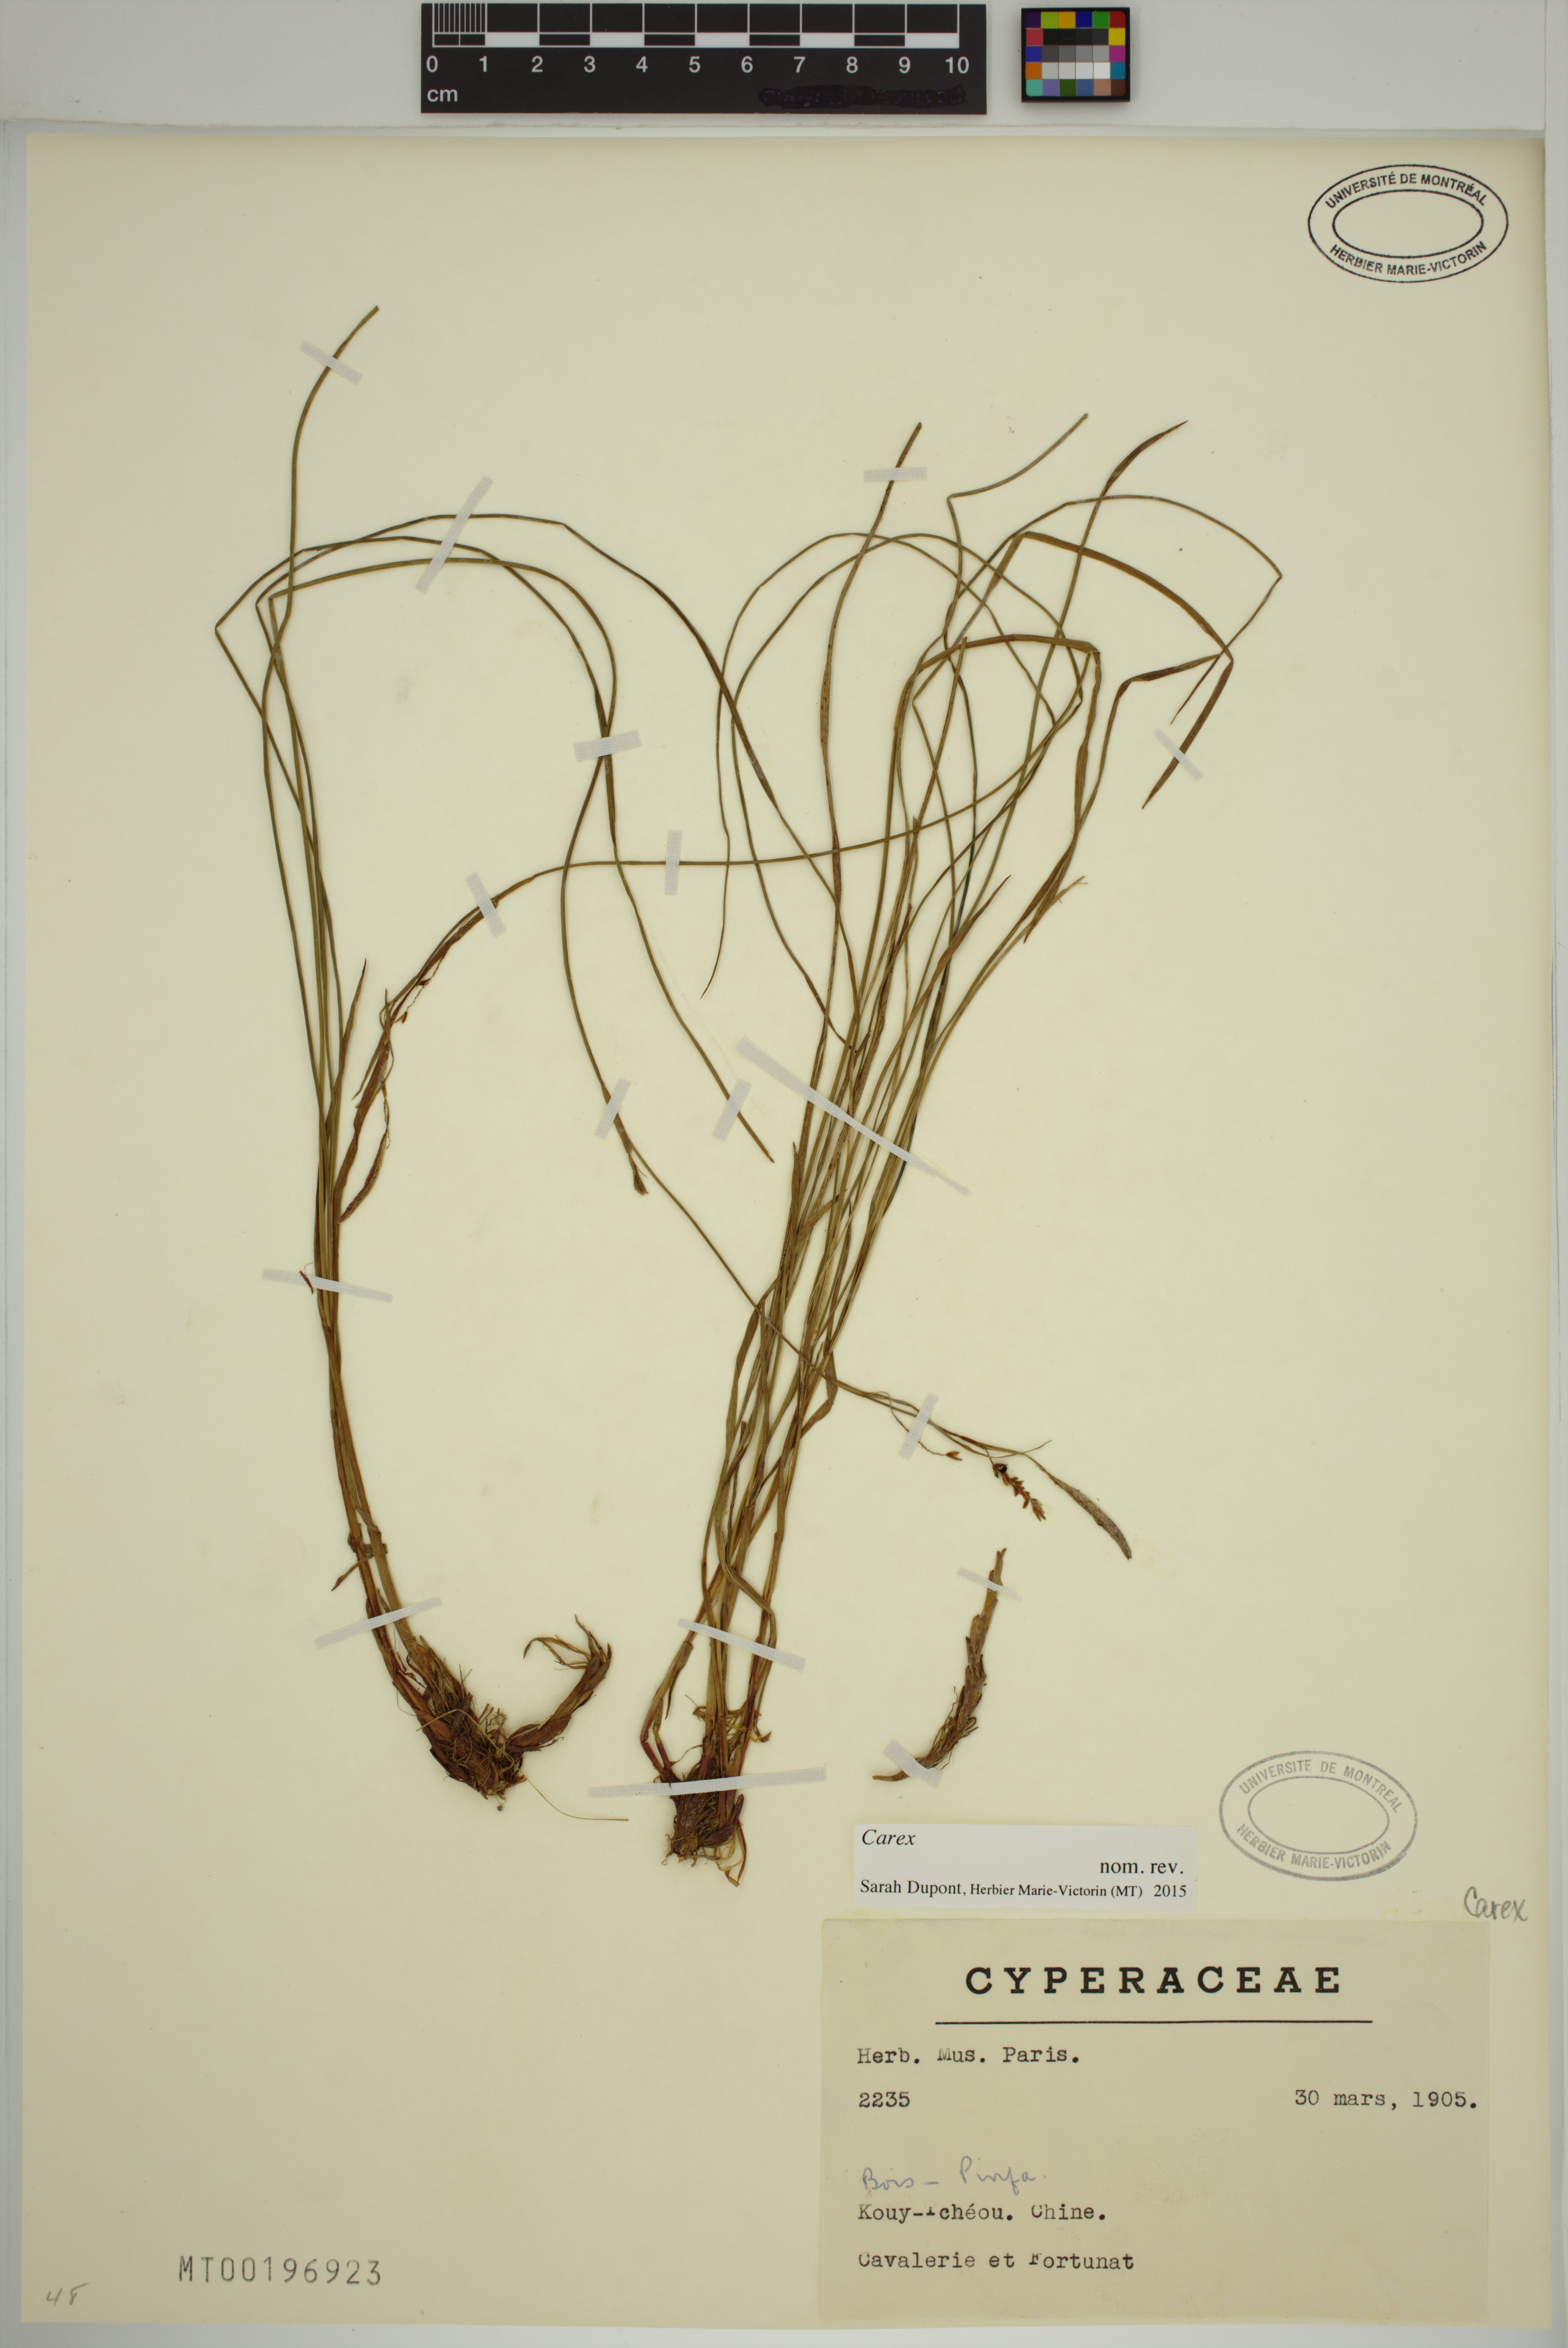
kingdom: Plantae
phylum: Tracheophyta
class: Liliopsida
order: Poales
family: Cyperaceae
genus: Carex
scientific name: Carex
